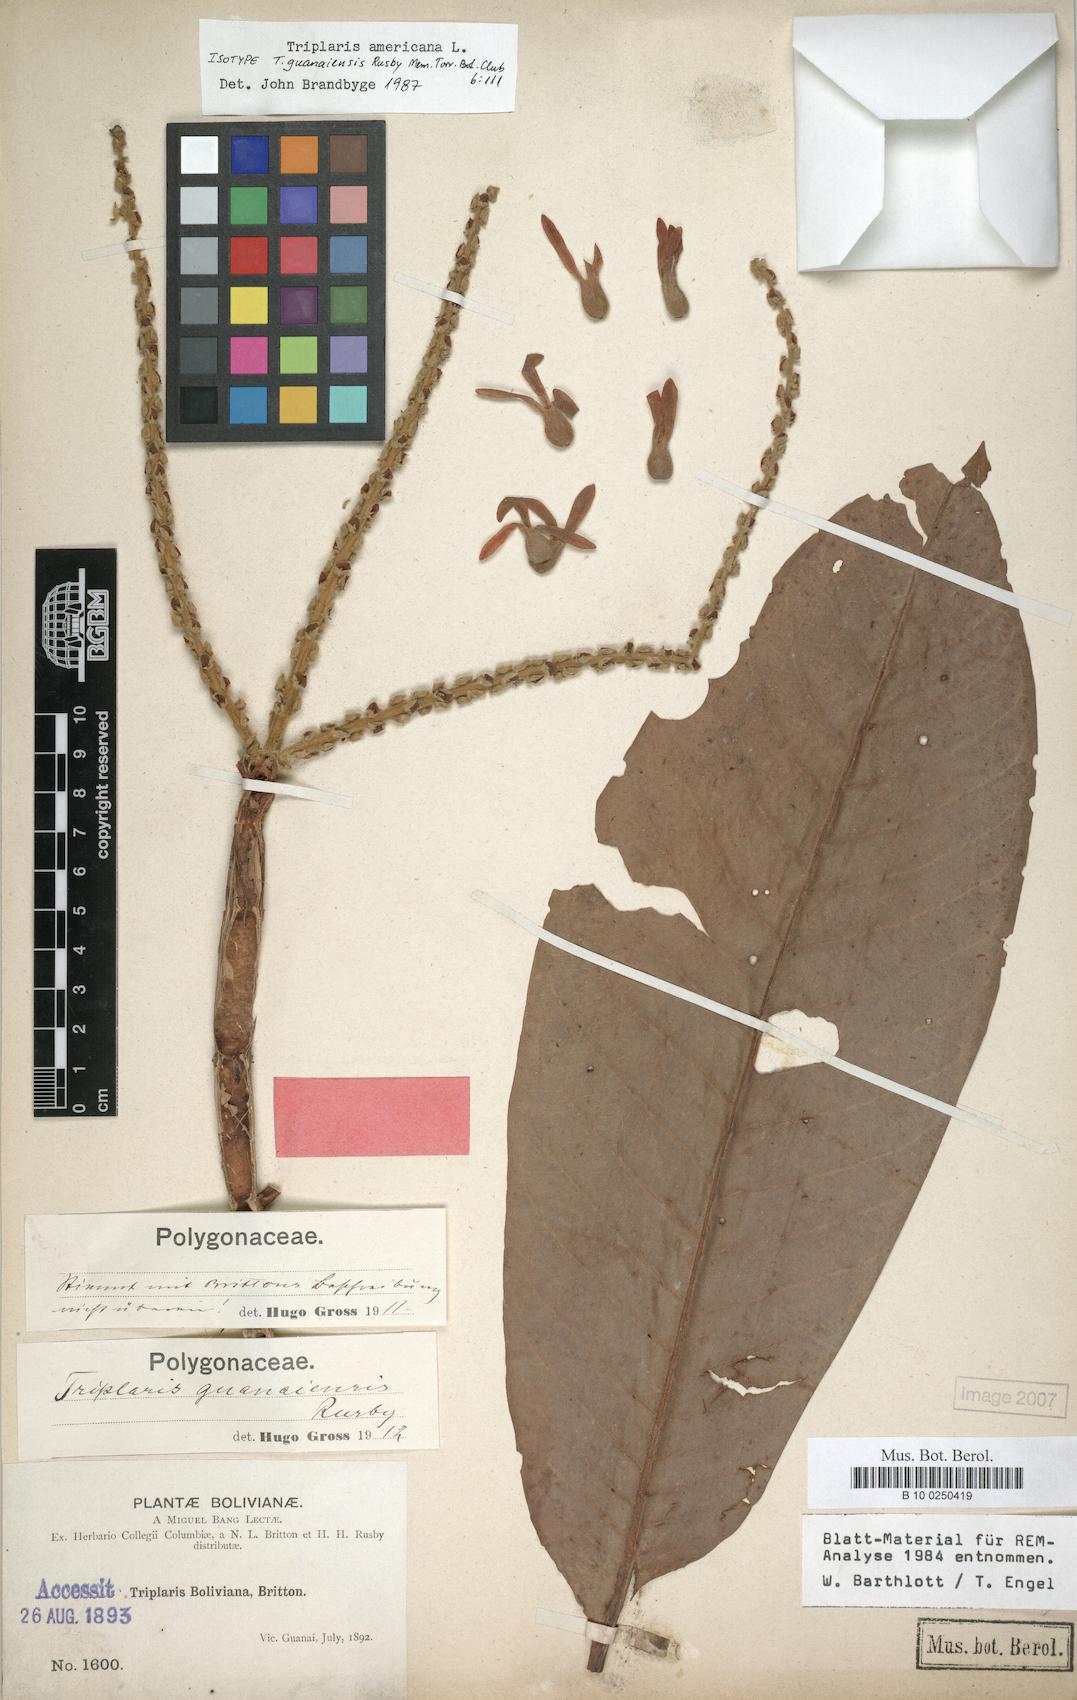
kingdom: Plantae
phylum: Tracheophyta
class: Magnoliopsida
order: Caryophyllales
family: Polygonaceae
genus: Triplaris
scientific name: Triplaris americana
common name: Ant-tree
